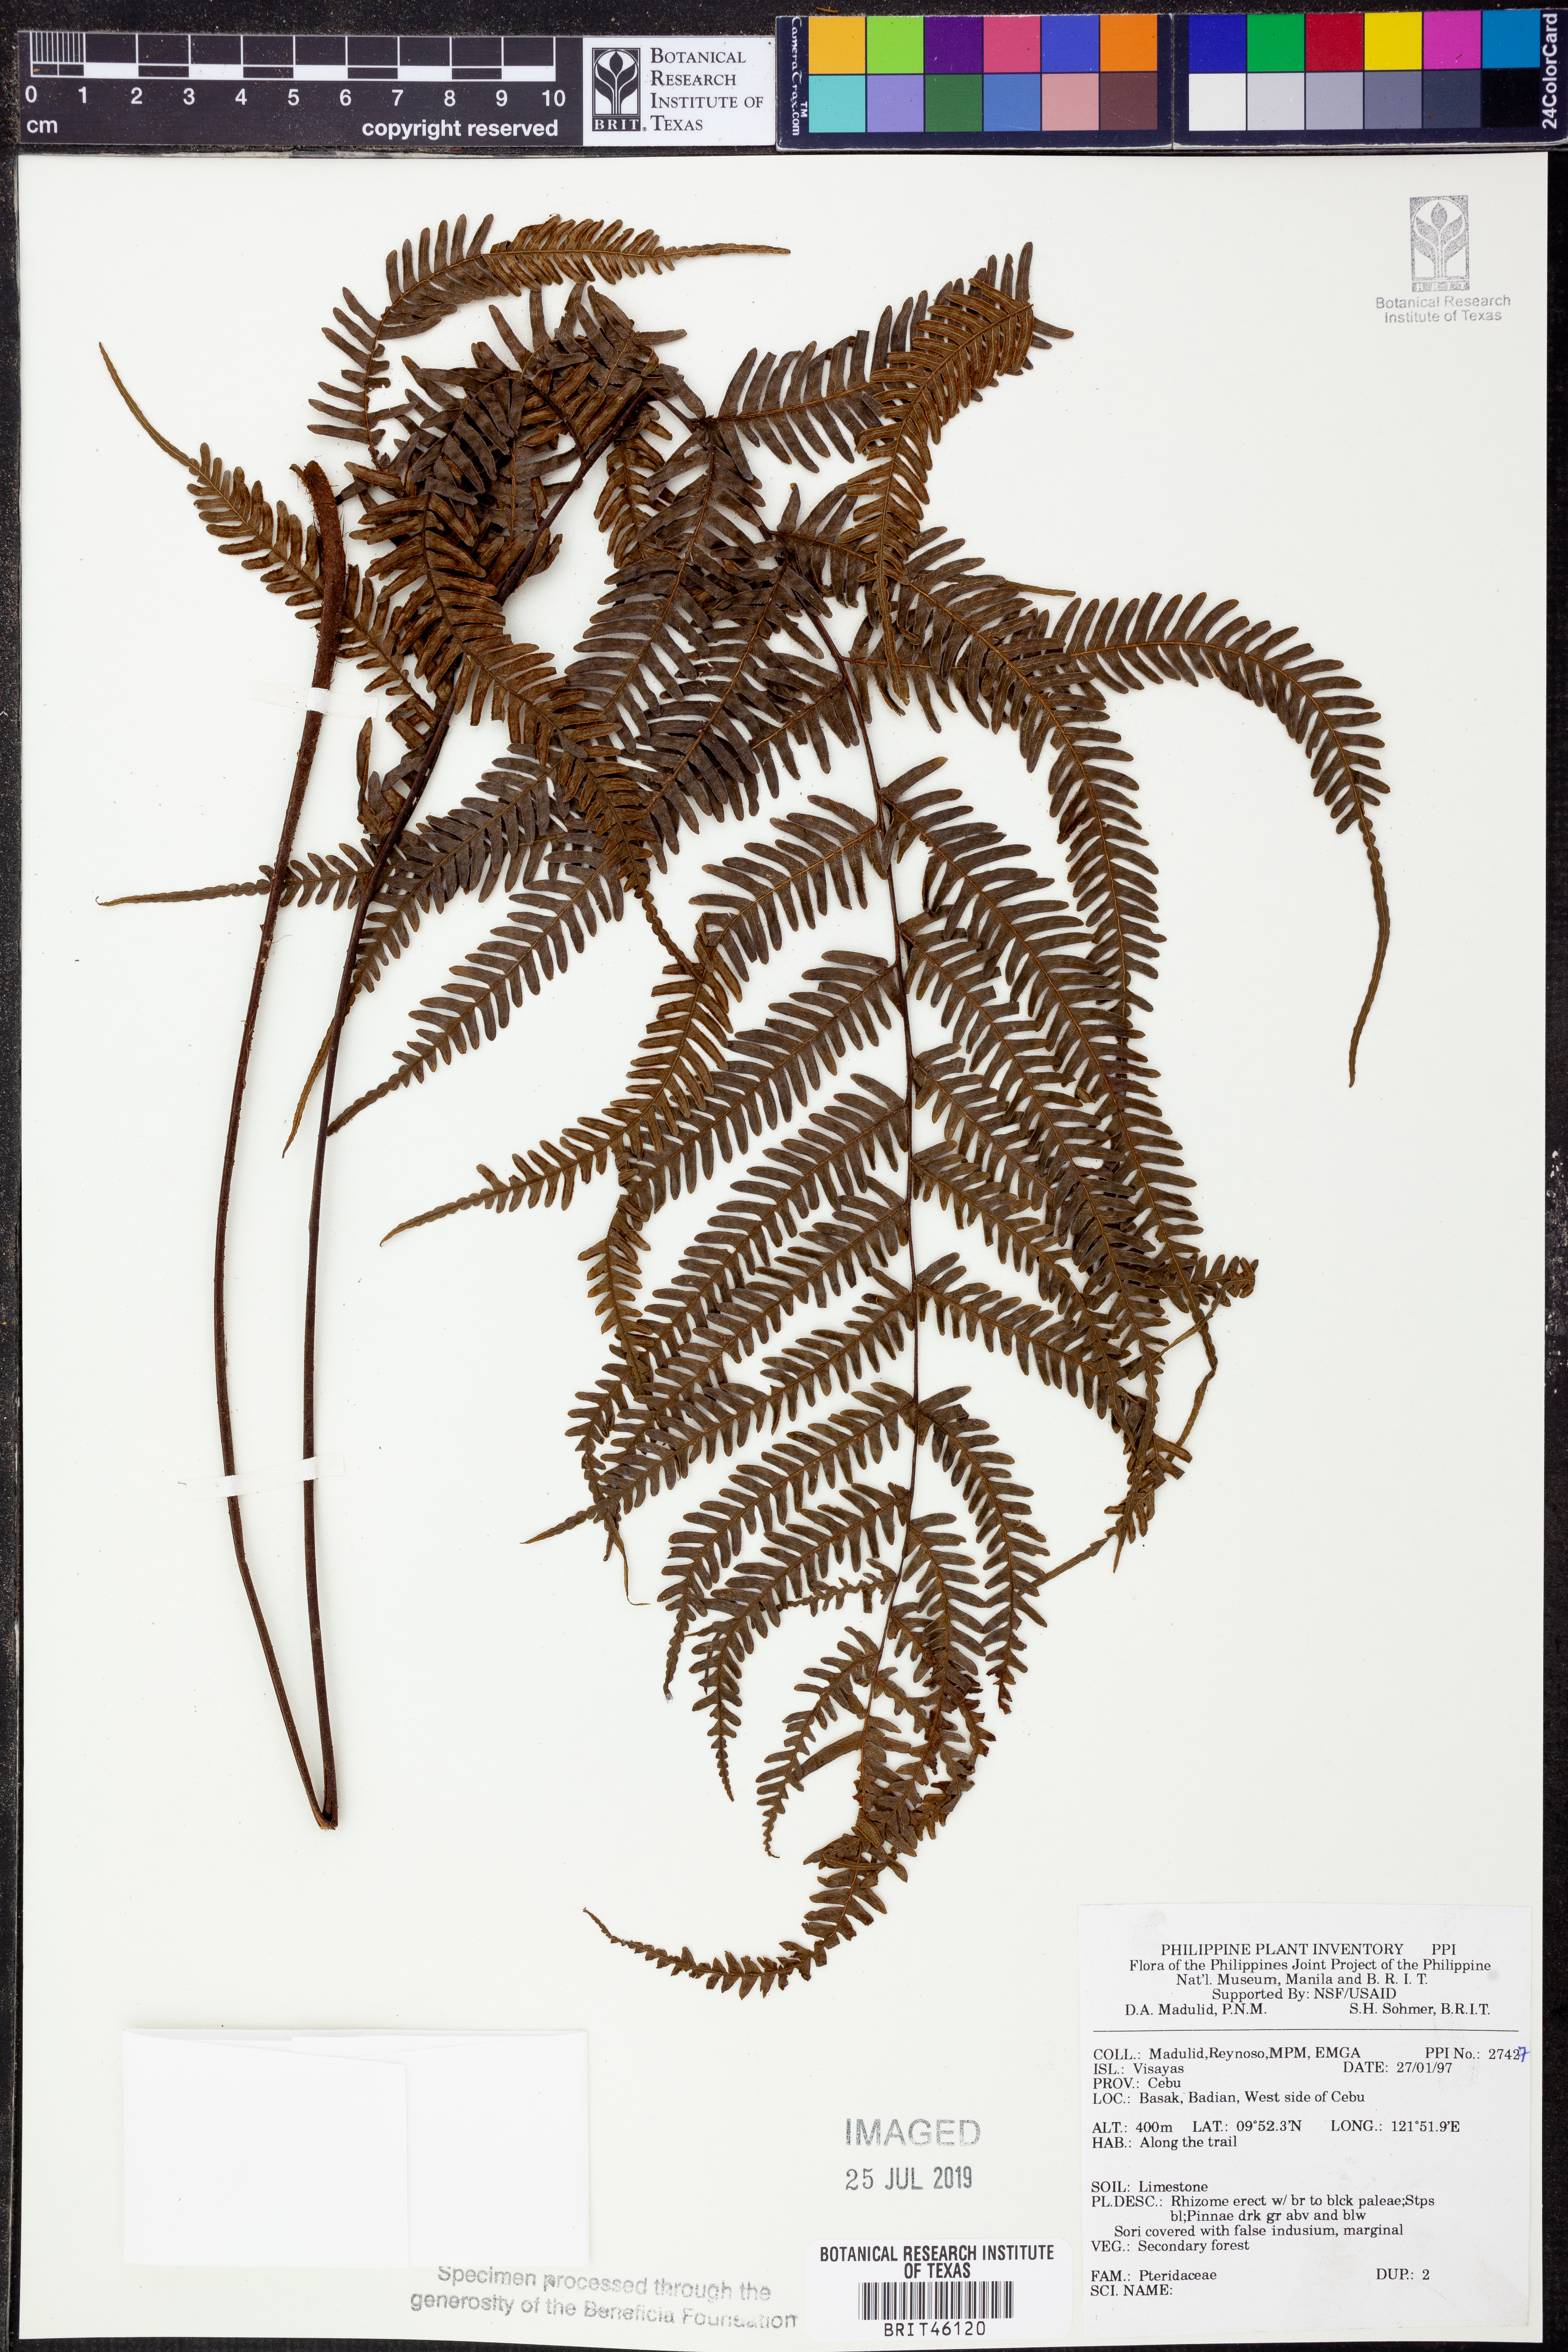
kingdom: Plantae
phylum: Tracheophyta
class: Polypodiopsida
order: Polypodiales
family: Pteridaceae
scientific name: Pteridaceae
